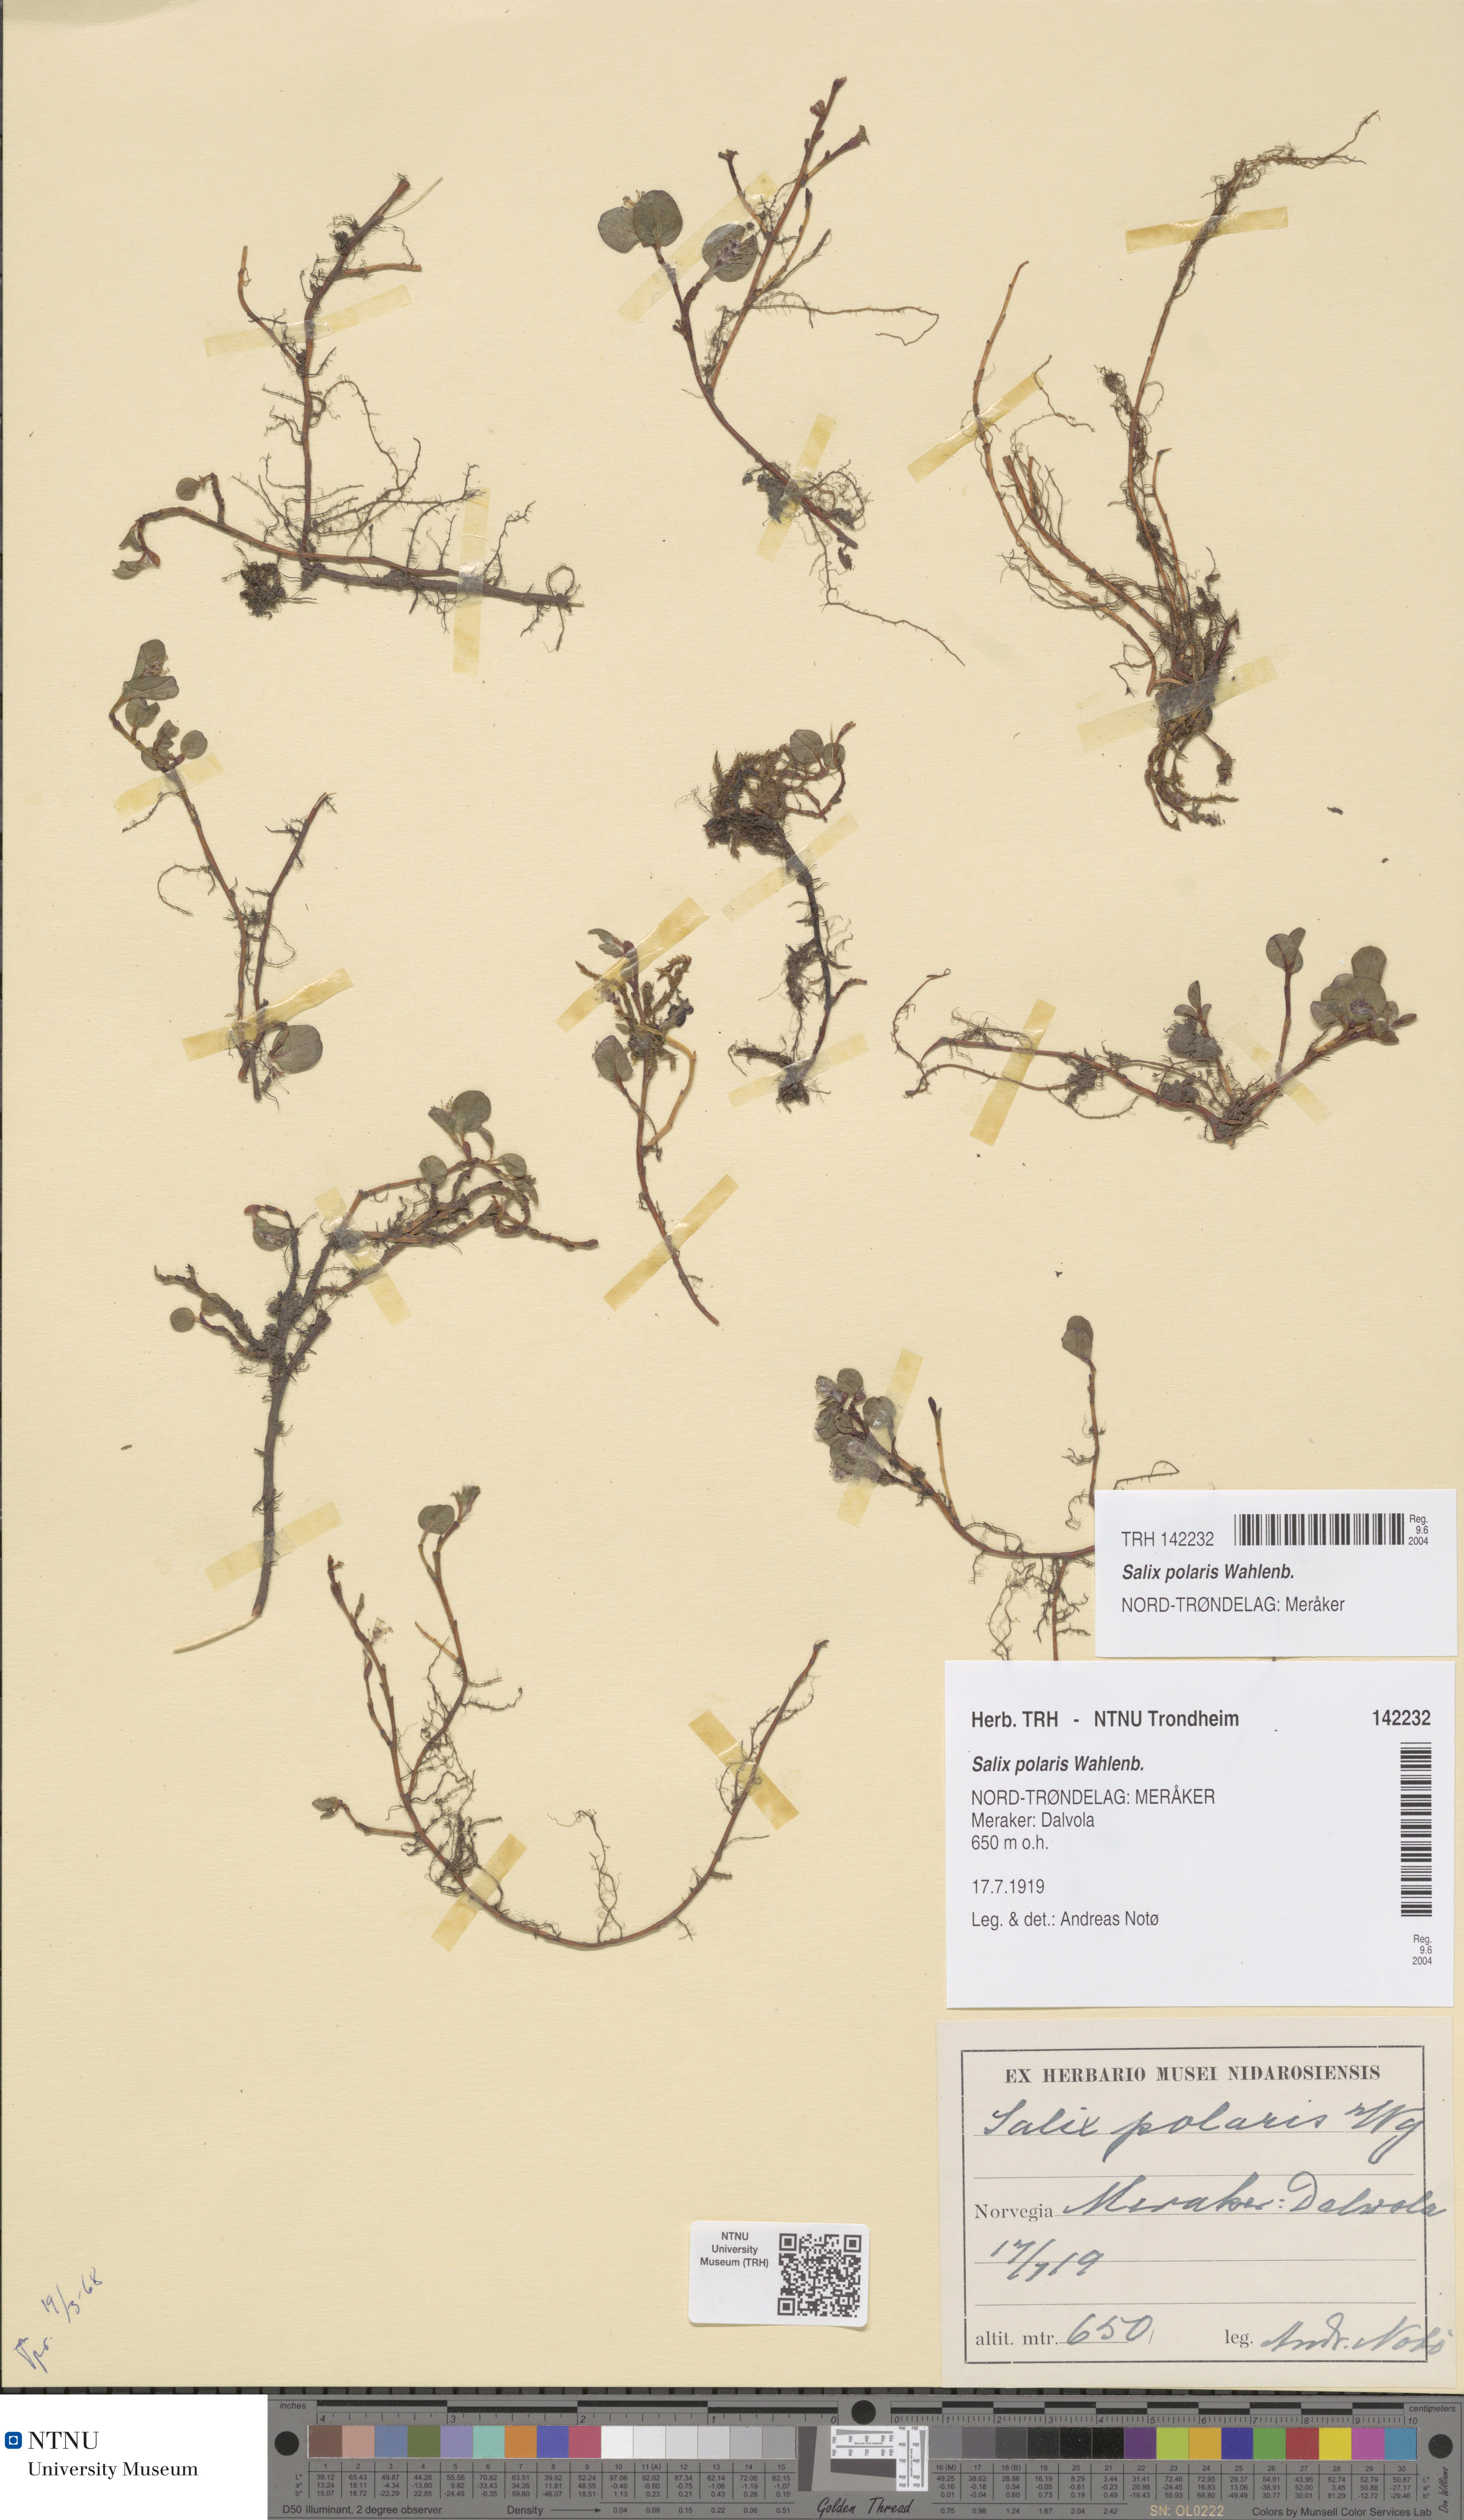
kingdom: Plantae
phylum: Tracheophyta
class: Magnoliopsida
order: Malpighiales
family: Salicaceae
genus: Salix
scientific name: Salix polaris
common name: Polar willow
